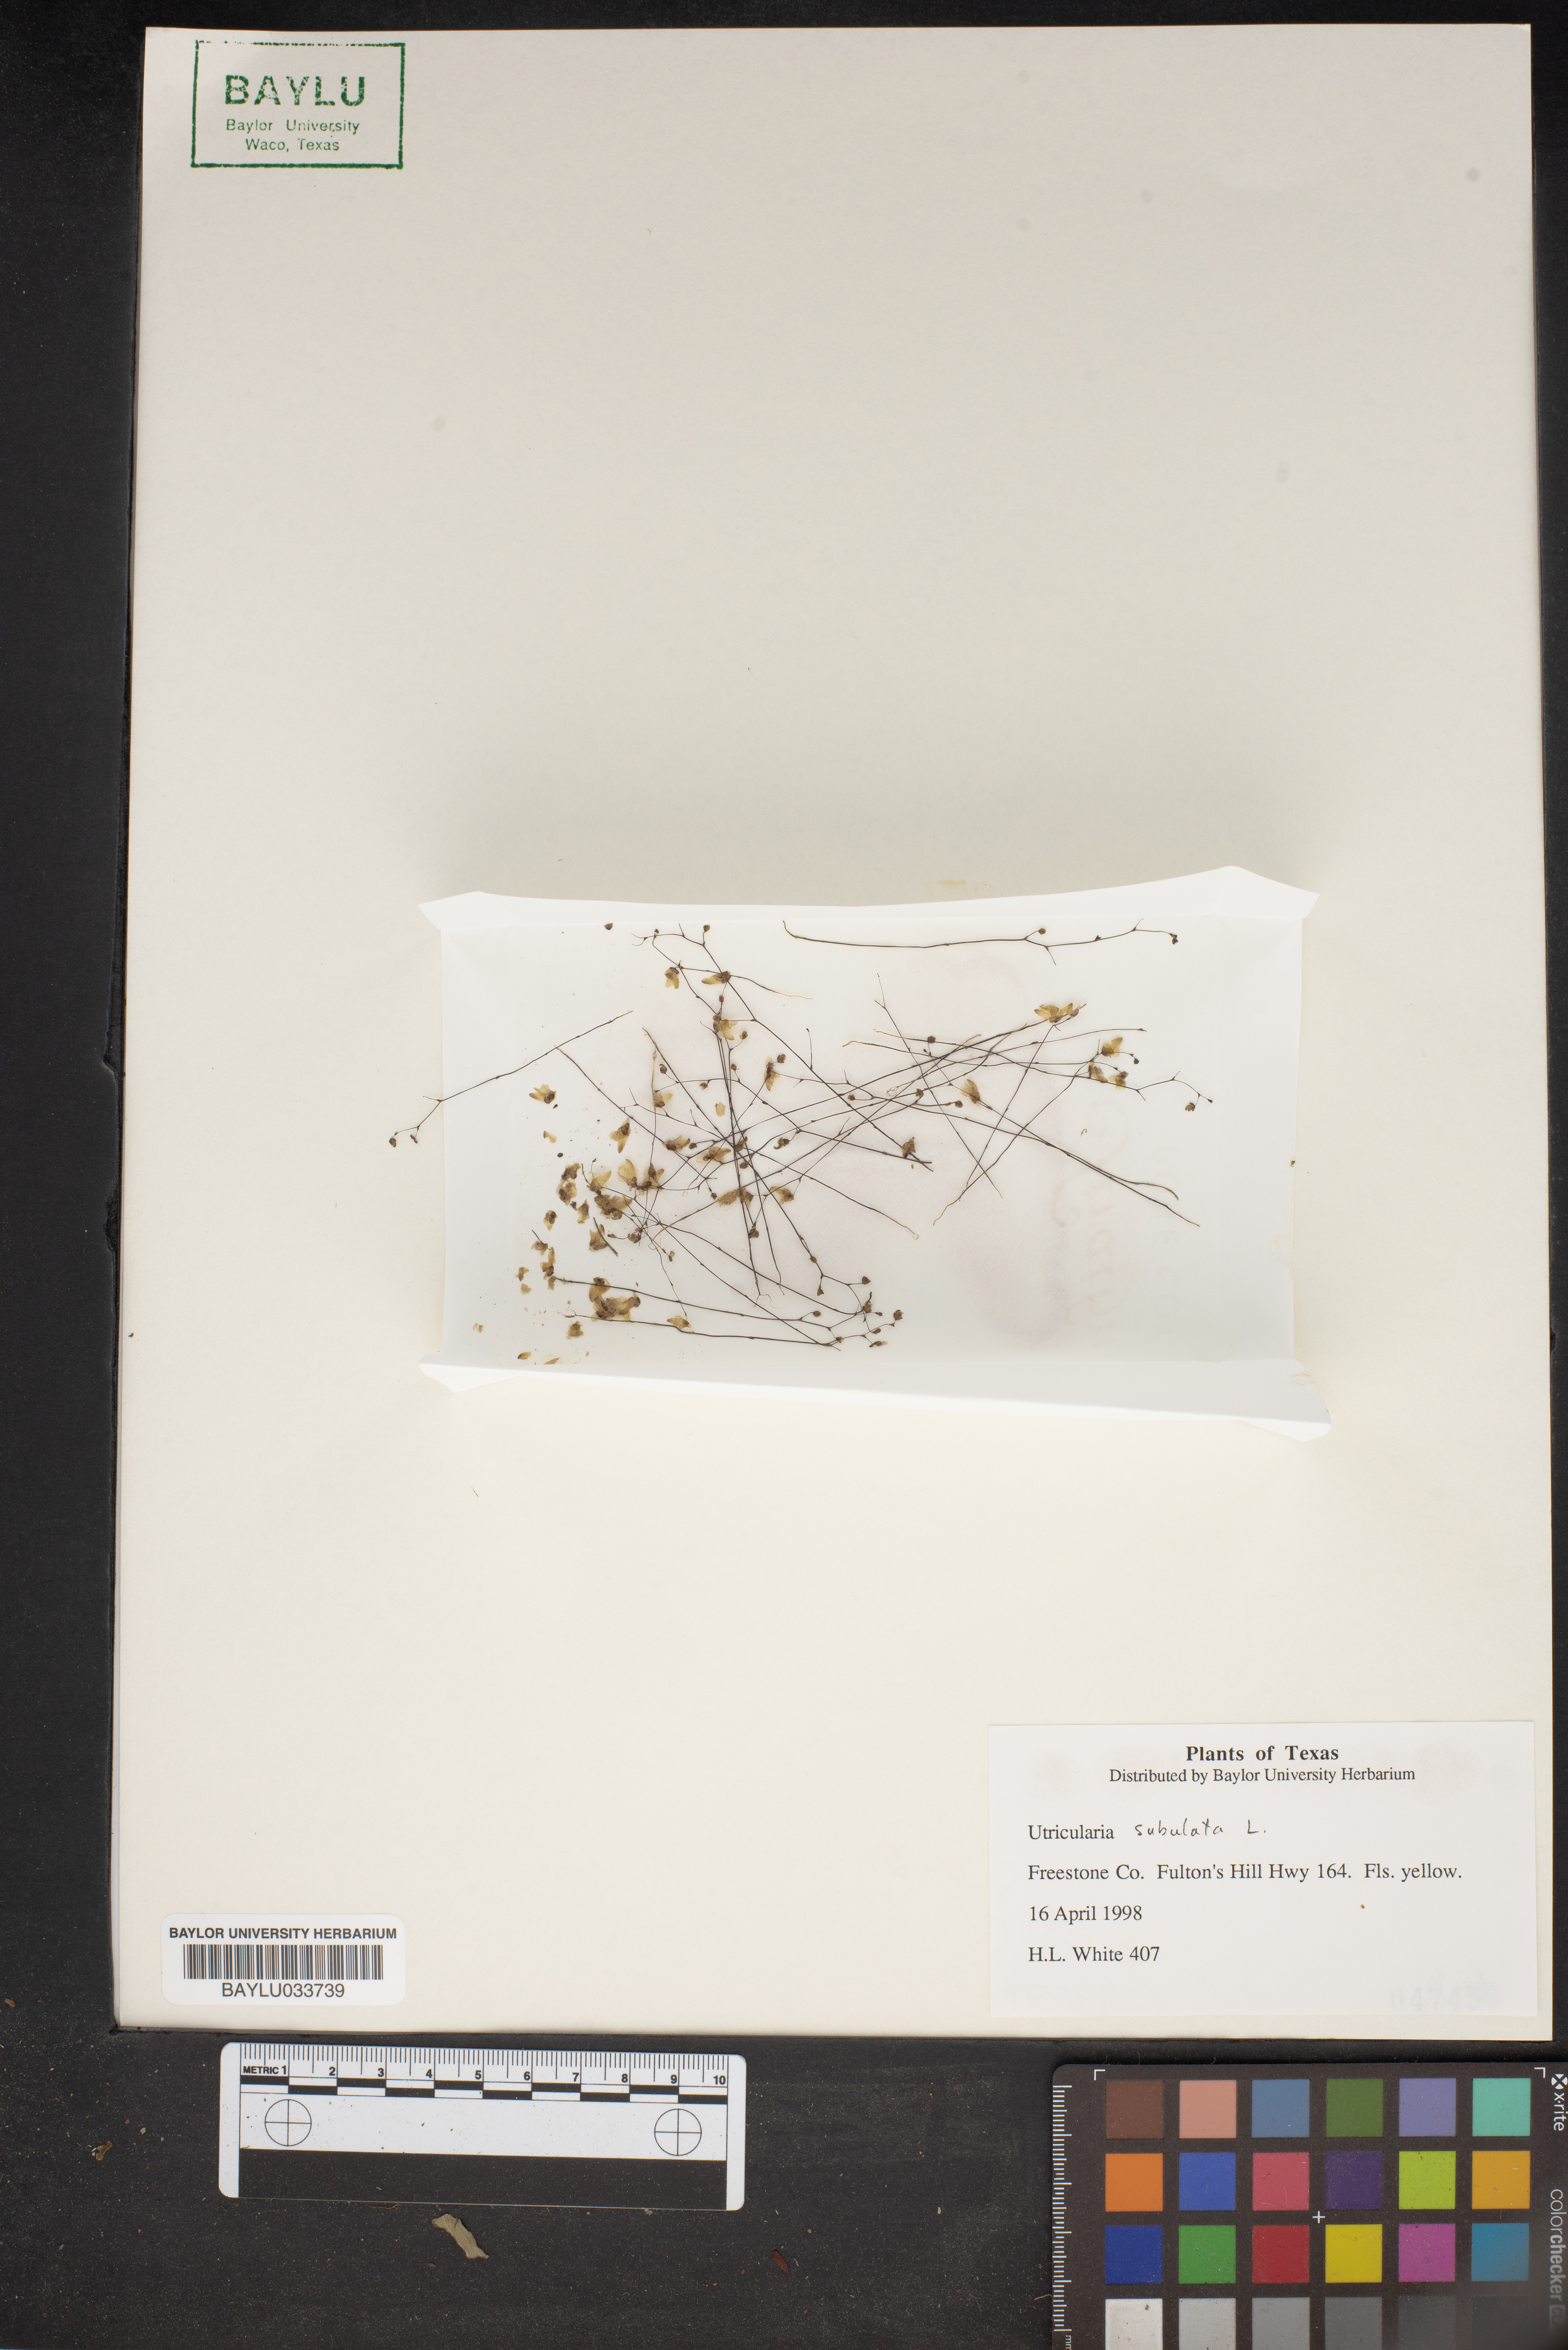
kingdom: Plantae
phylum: Tracheophyta
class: Magnoliopsida
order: Lamiales
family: Lentibulariaceae
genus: Utricularia
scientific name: Utricularia subulata
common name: Tiny bladderwort
